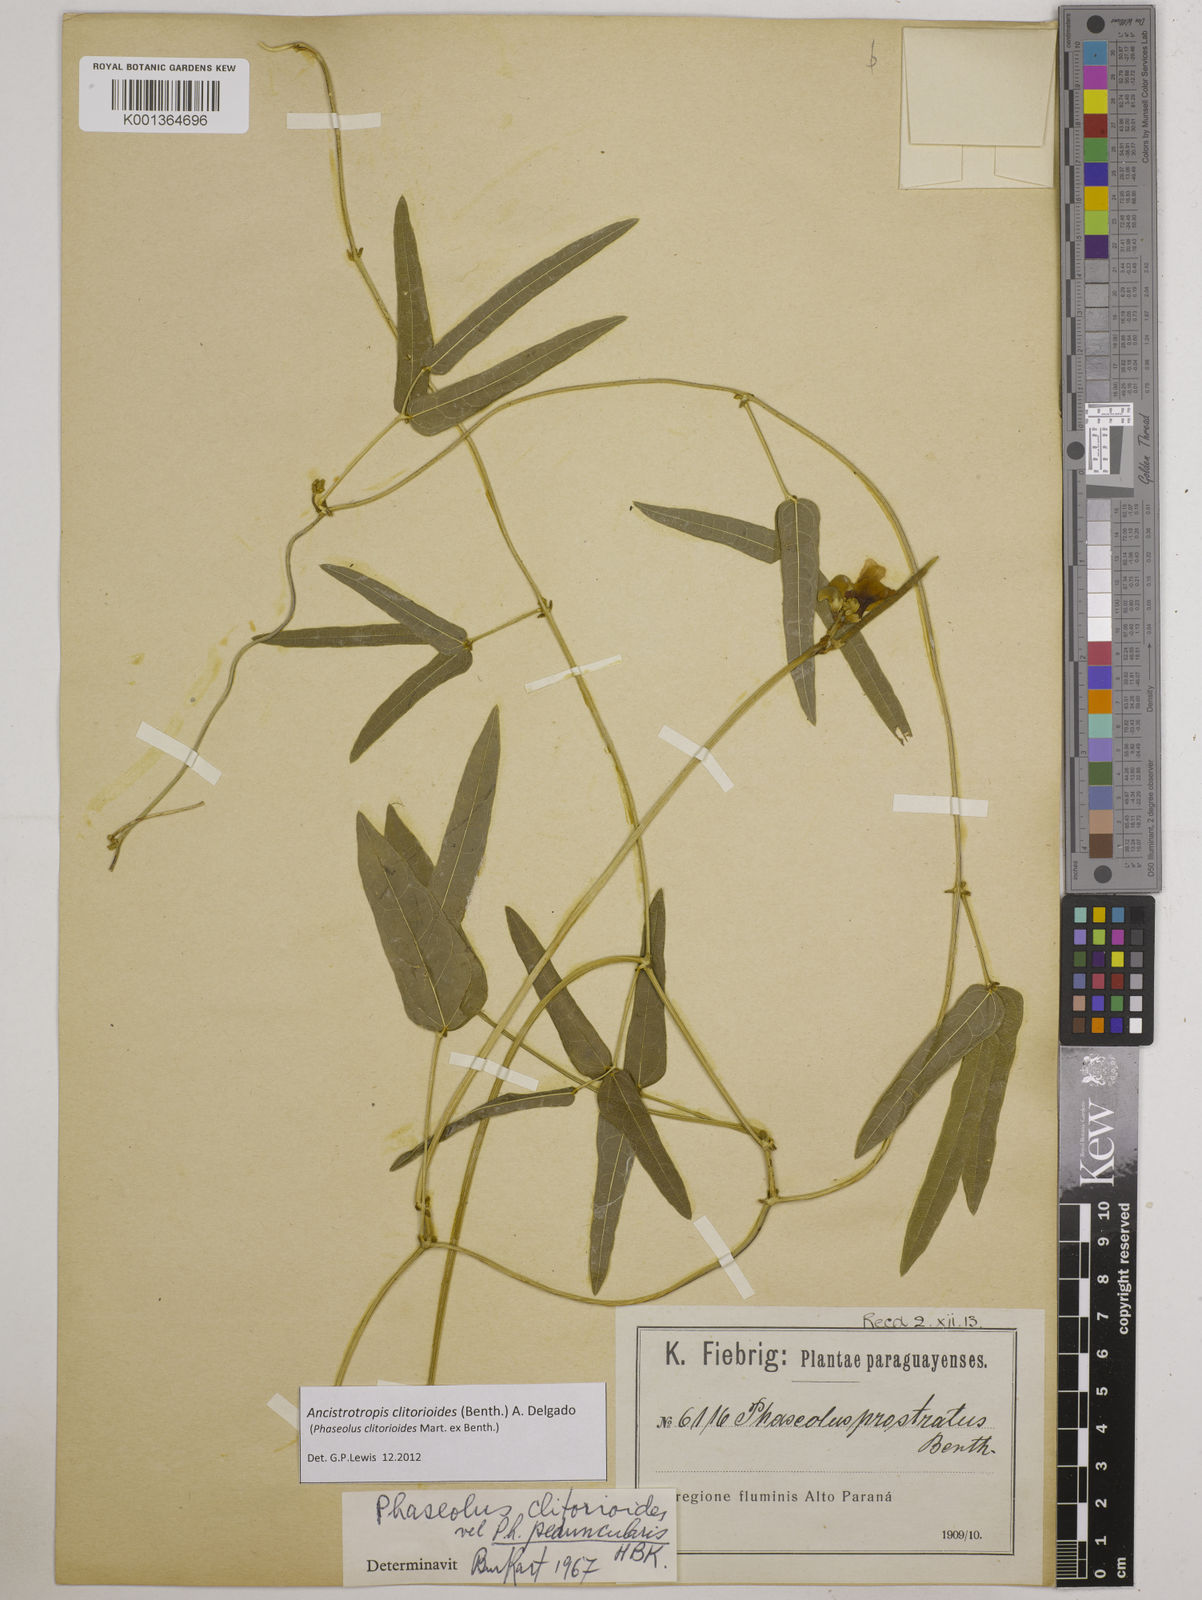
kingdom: Plantae
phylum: Tracheophyta
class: Magnoliopsida
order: Fabales
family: Fabaceae
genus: Ancistrotropis
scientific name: Ancistrotropis clitorioides
